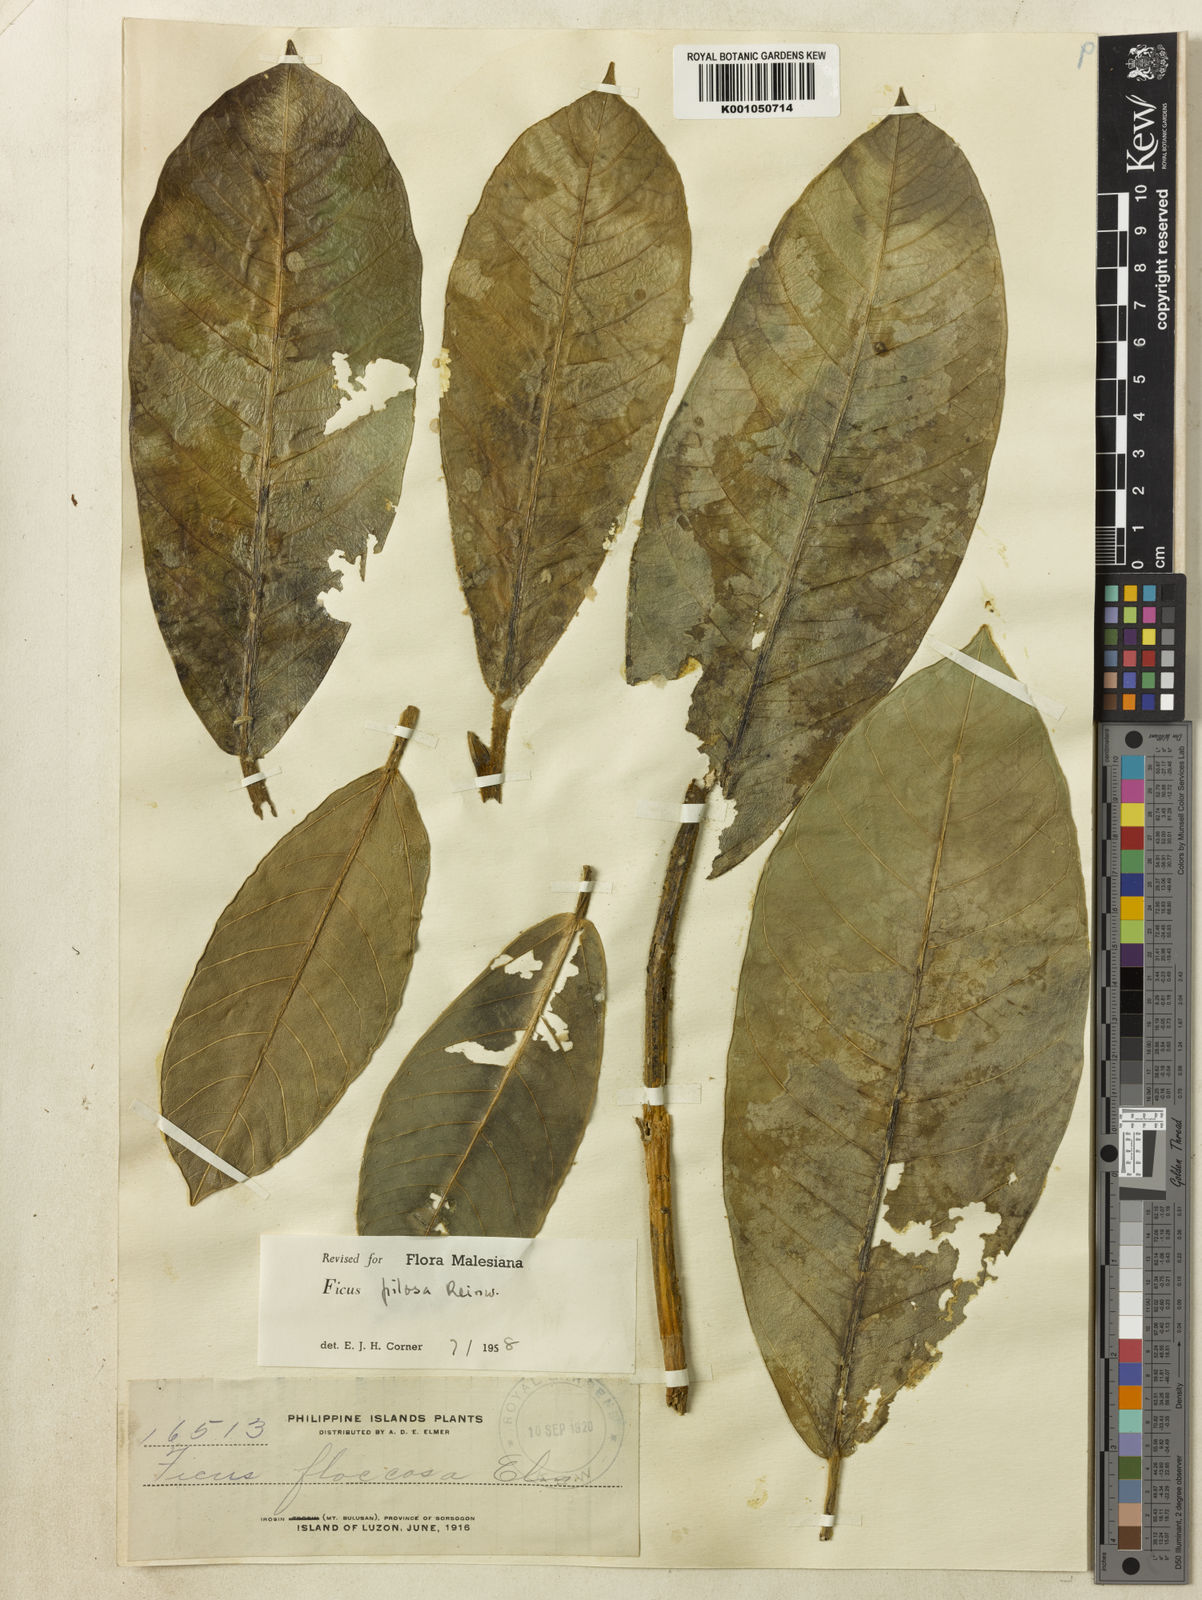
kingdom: Plantae
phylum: Tracheophyta
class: Magnoliopsida
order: Rosales
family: Moraceae
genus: Ficus
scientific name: Ficus
